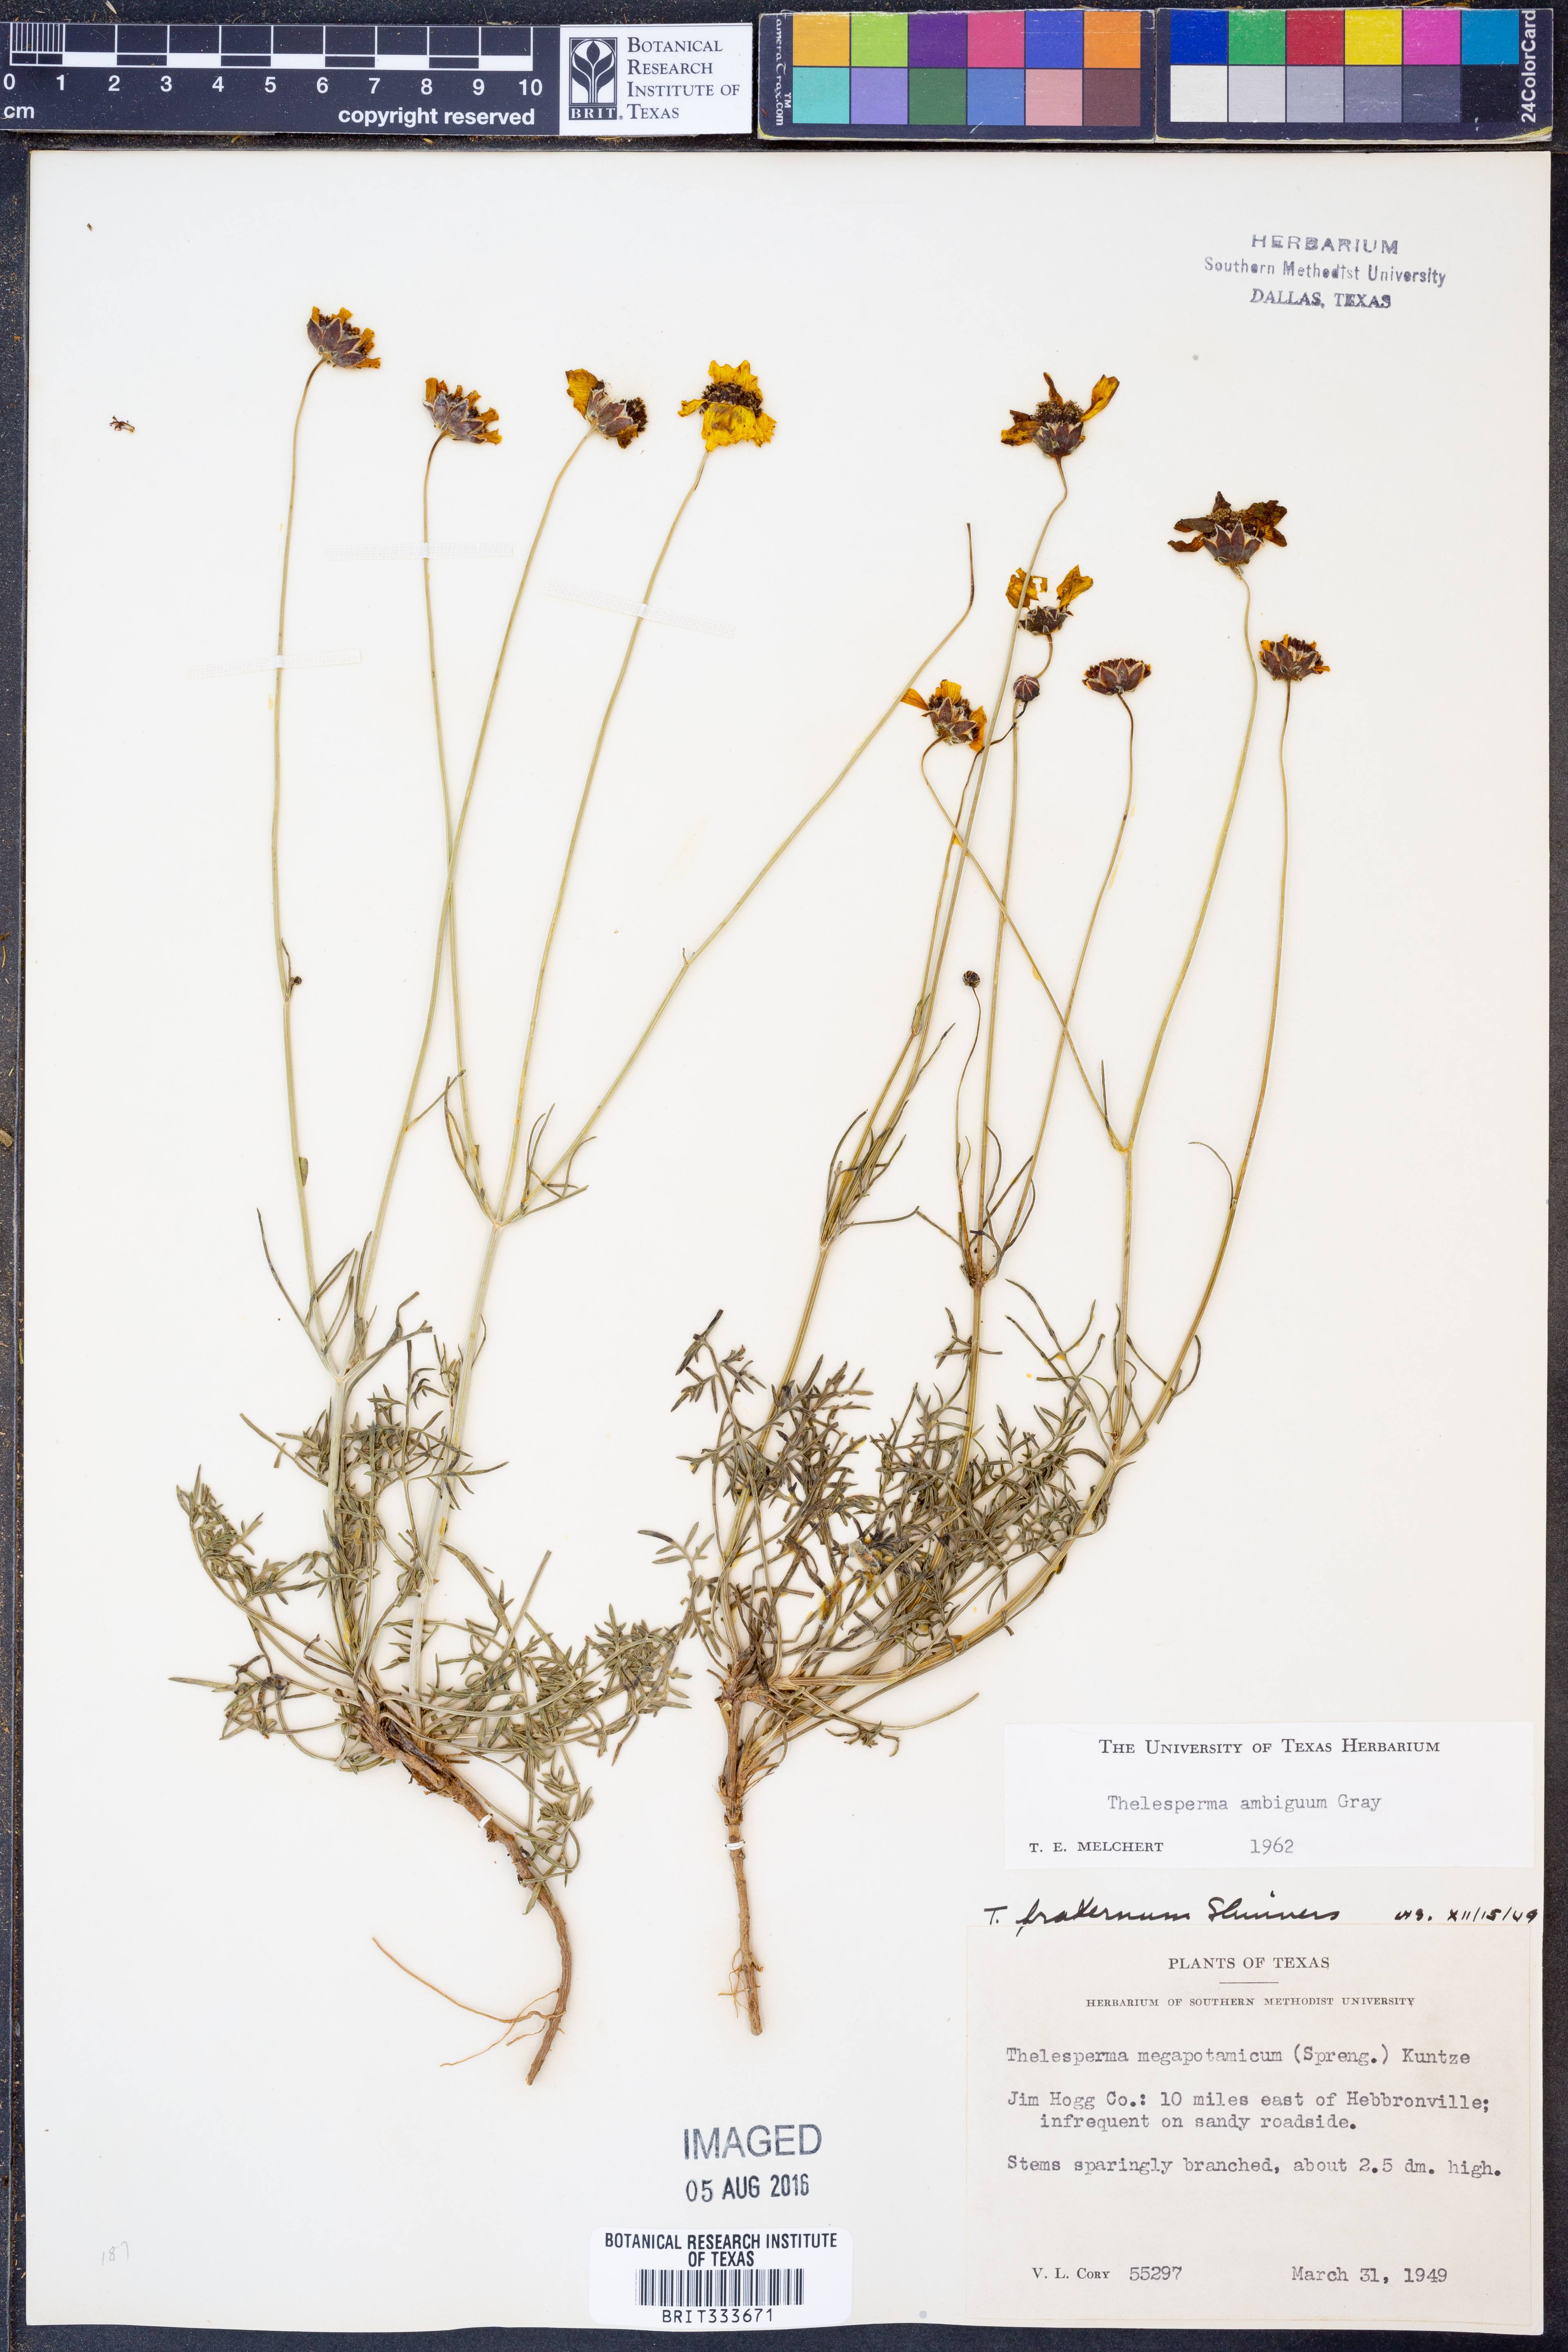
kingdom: Plantae
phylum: Tracheophyta
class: Magnoliopsida
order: Asterales
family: Asteraceae
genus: Thelesperma
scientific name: Thelesperma ambiguum
